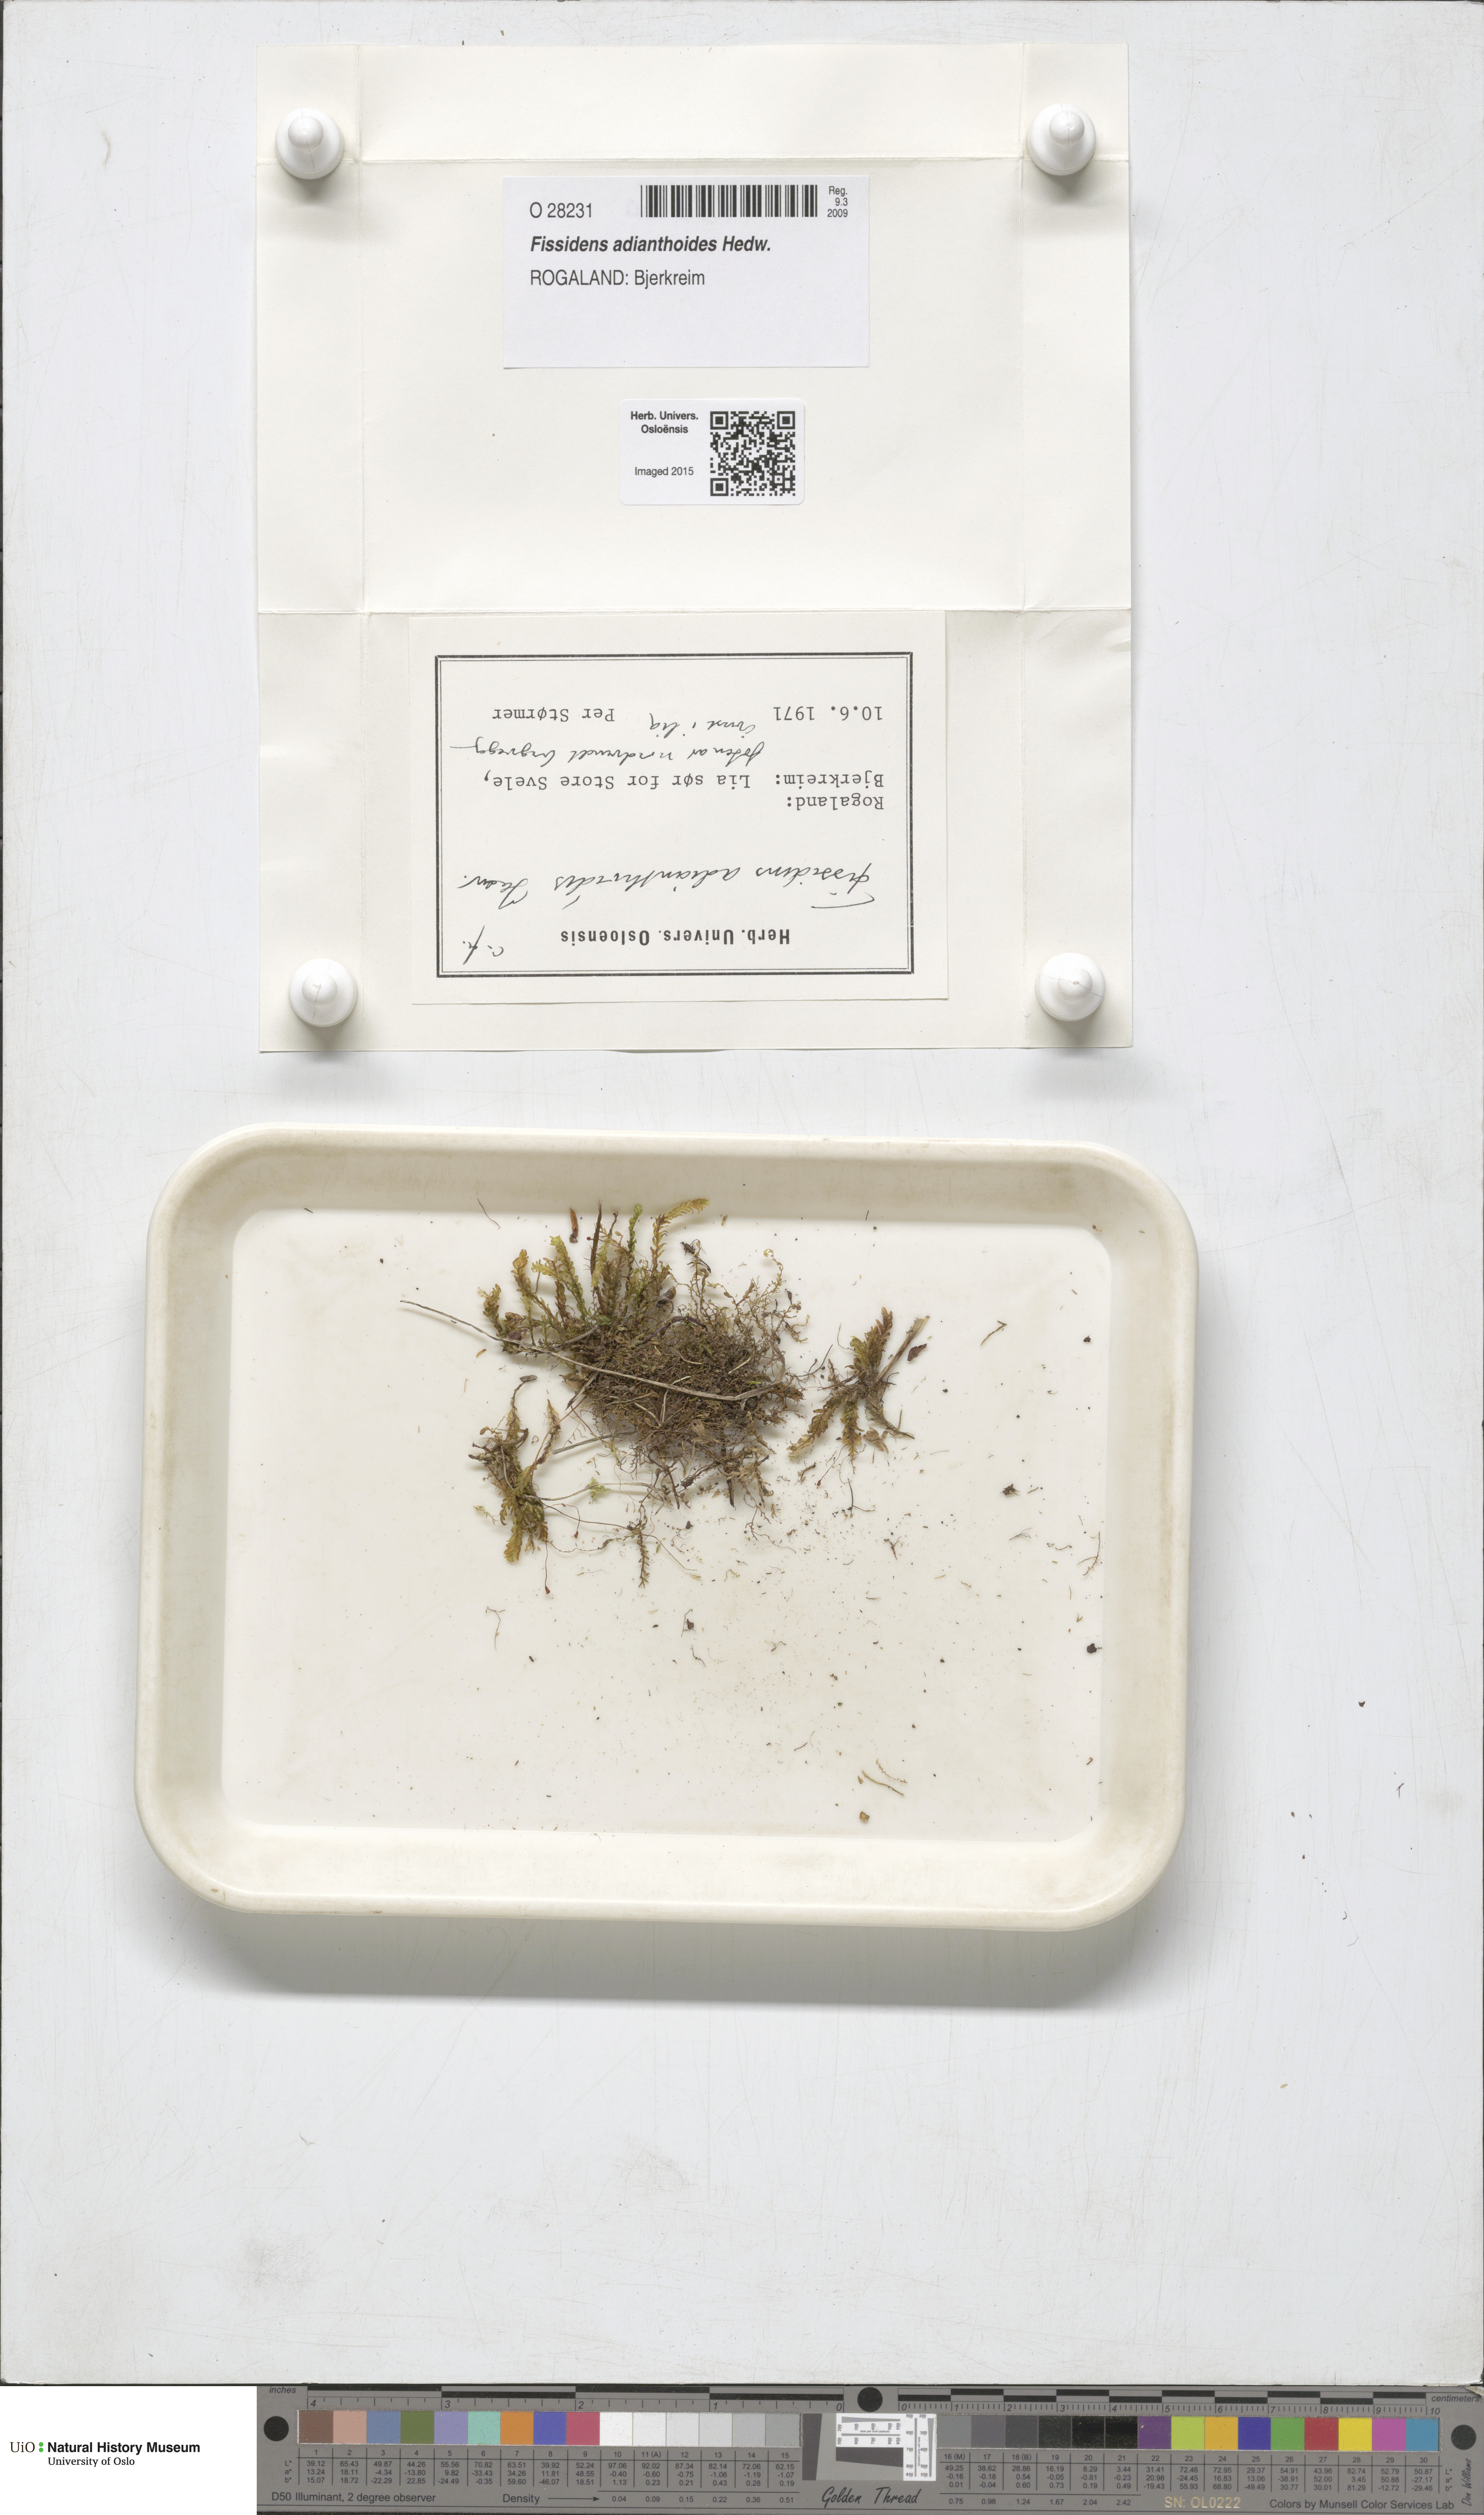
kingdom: Plantae
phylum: Bryophyta
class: Bryopsida
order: Dicranales
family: Fissidentaceae
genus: Fissidens
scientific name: Fissidens adianthoides
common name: Maidenhair pocket moss
